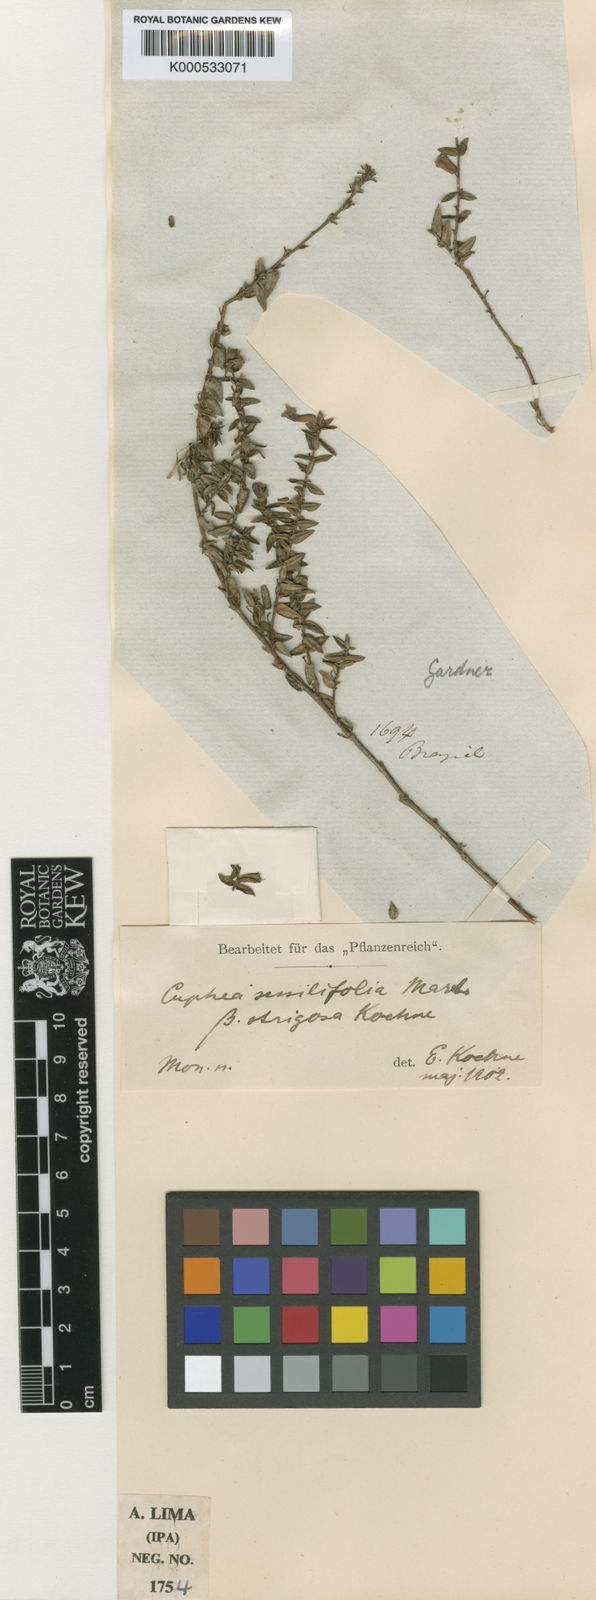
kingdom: Plantae
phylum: Tracheophyta
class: Magnoliopsida
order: Myrtales
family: Lythraceae
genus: Cuphea
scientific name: Cuphea sessilifolia
